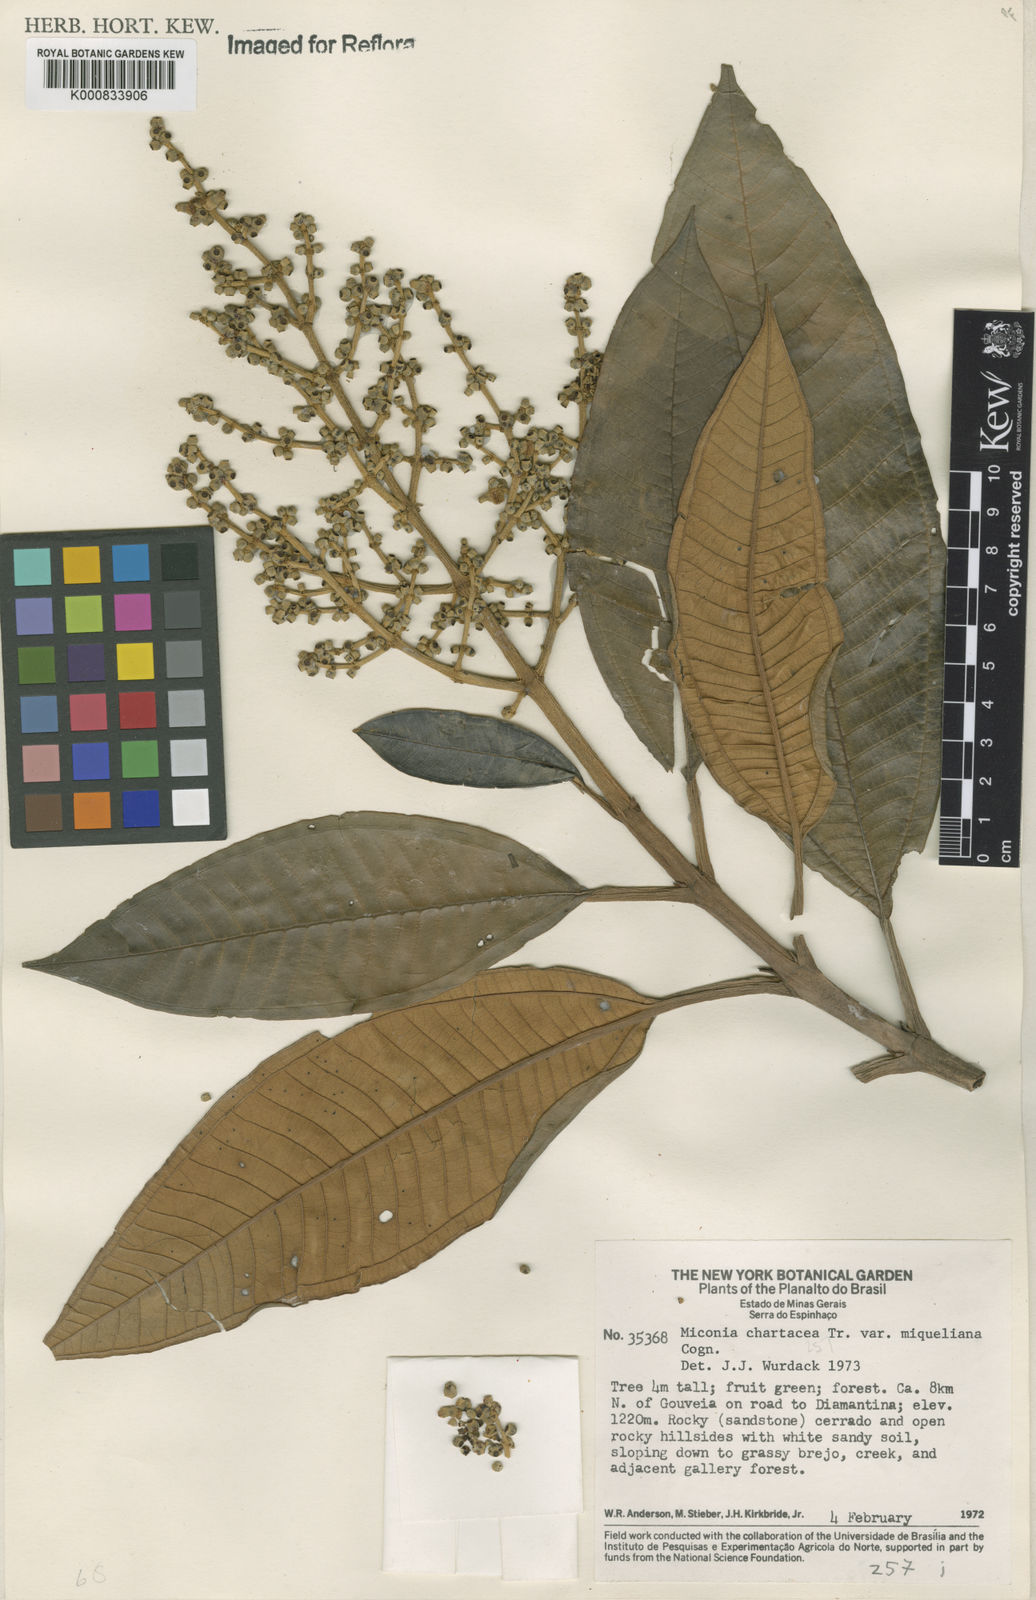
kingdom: Plantae
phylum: Tracheophyta
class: Magnoliopsida
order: Myrtales
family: Melastomataceae
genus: Miconia
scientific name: Miconia chartacea
